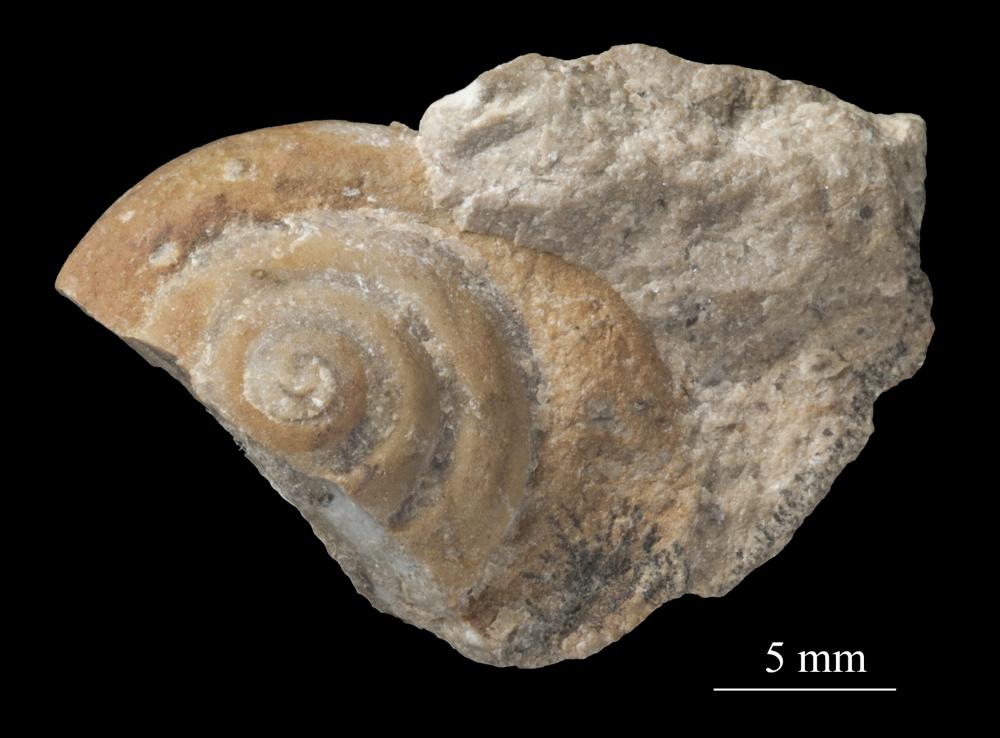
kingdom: Animalia
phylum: Mollusca
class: Gastropoda
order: Neogastropoda
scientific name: Neogastropoda
